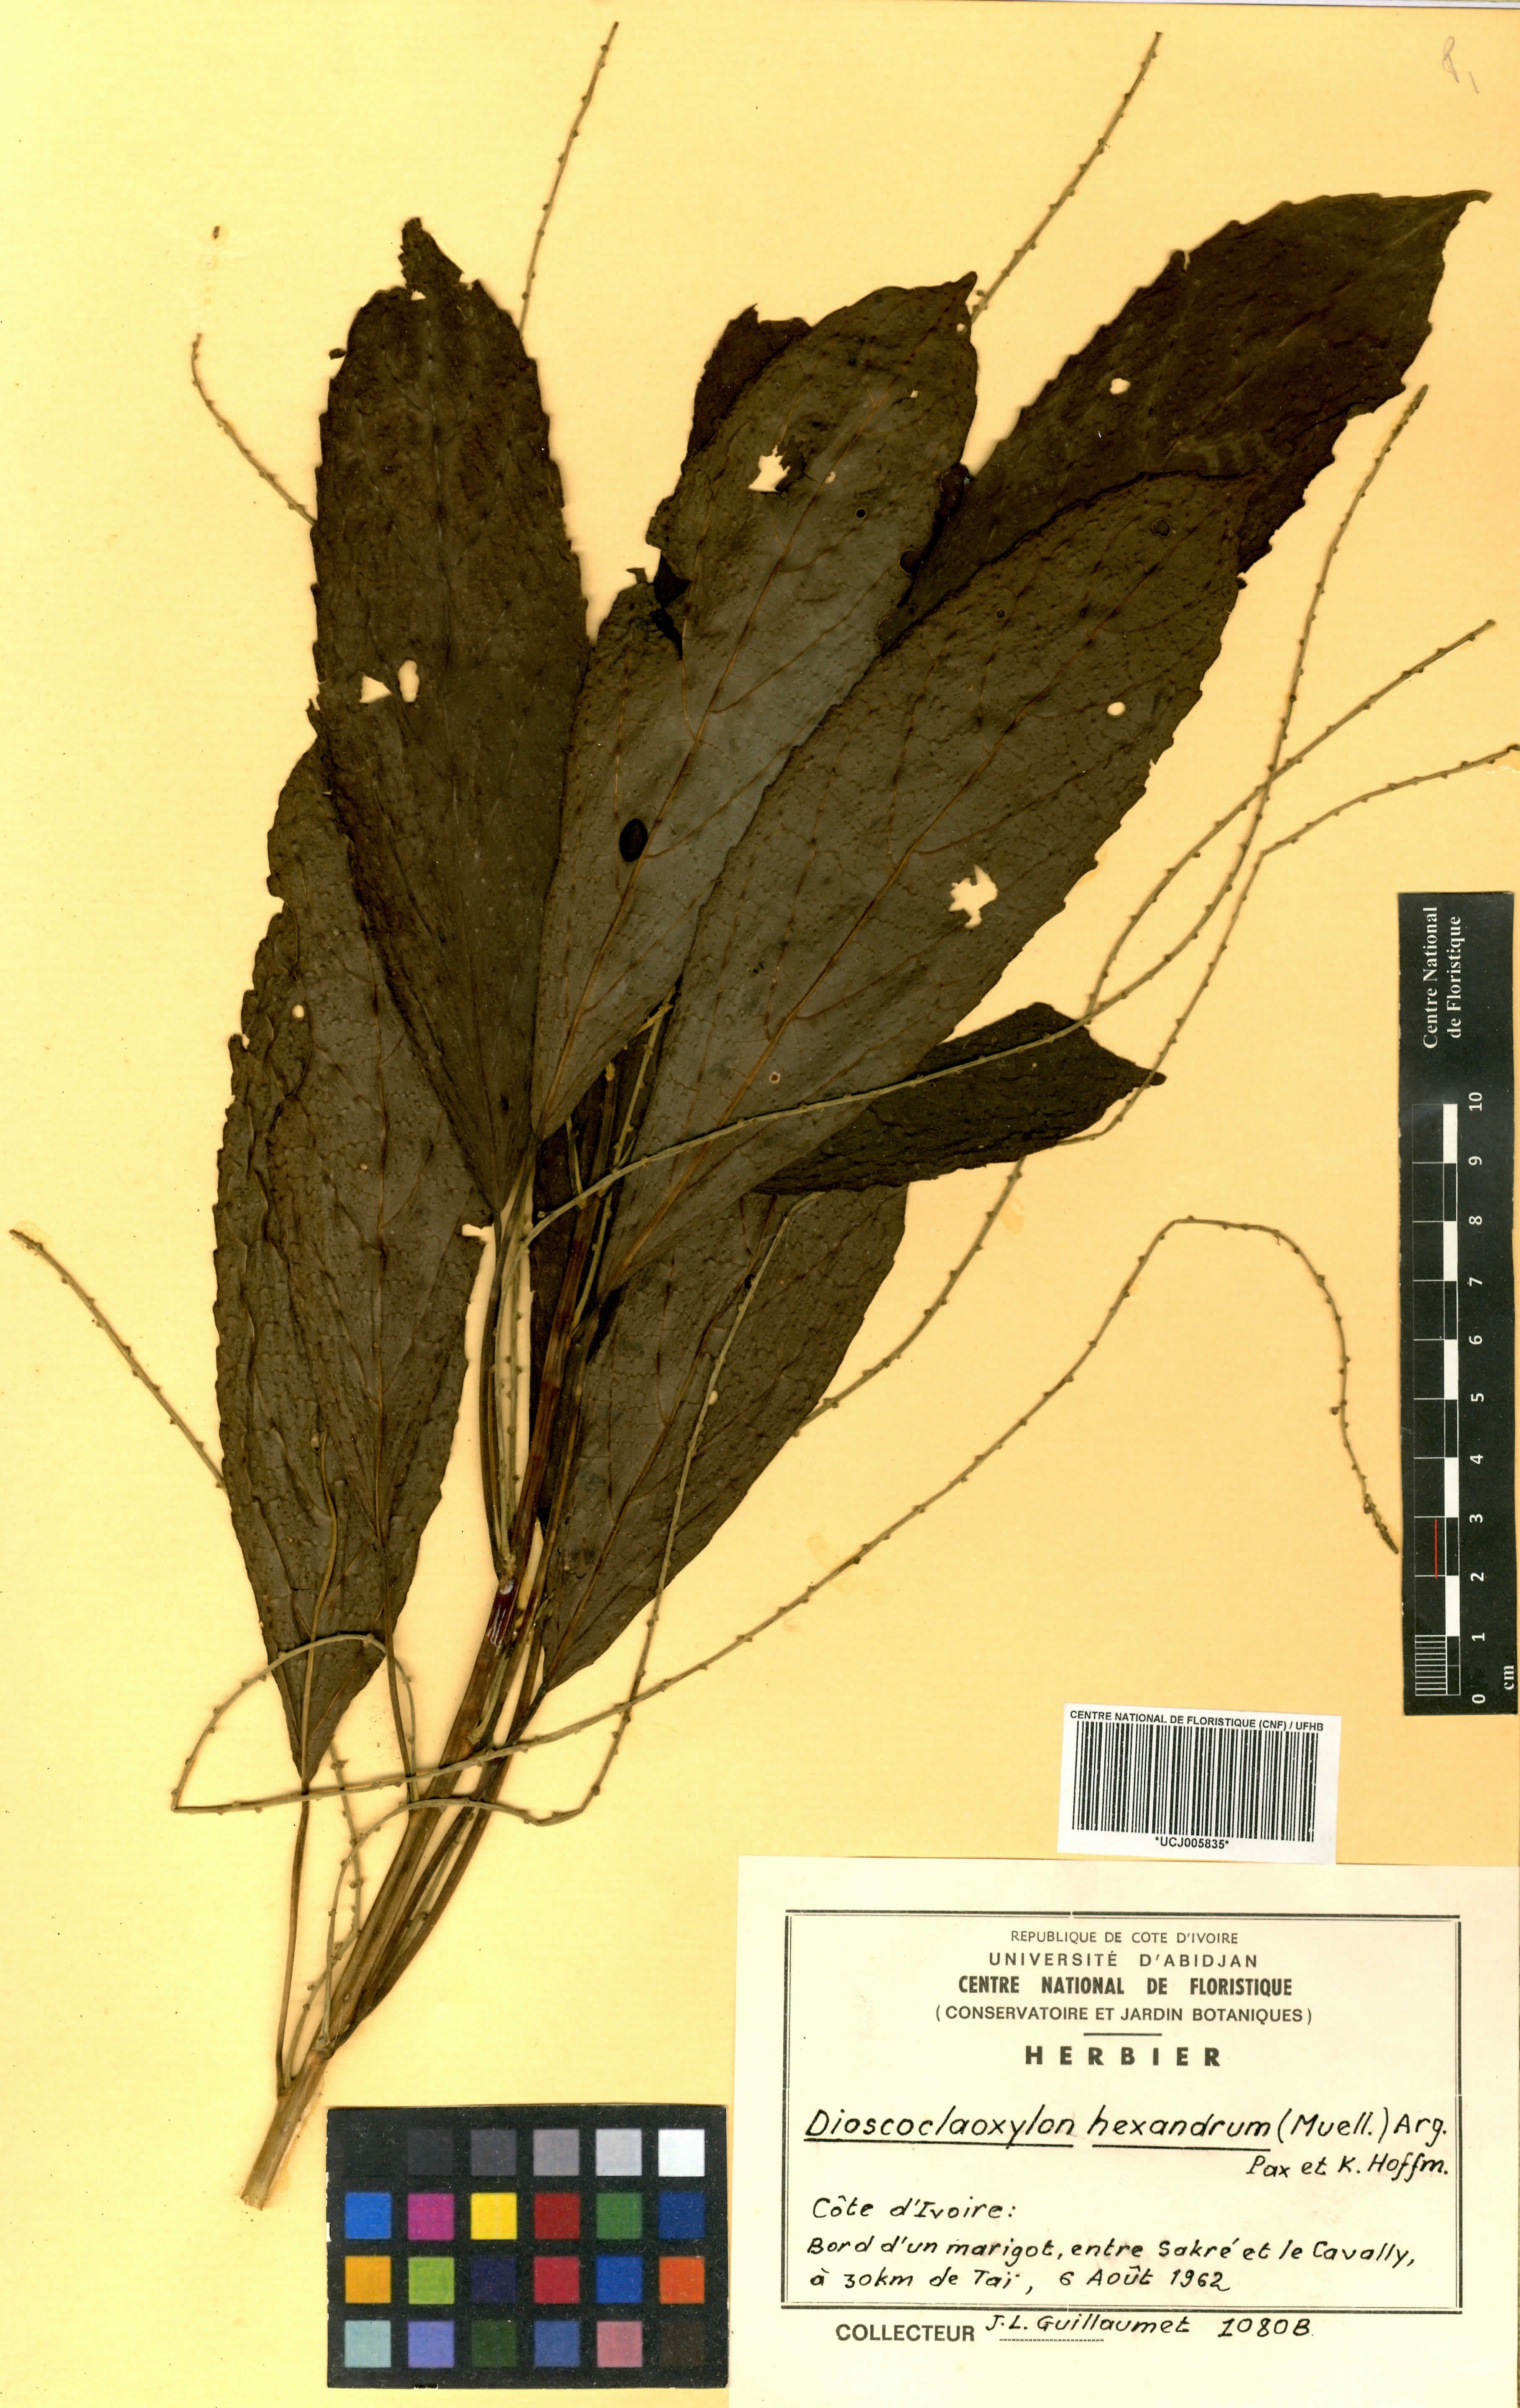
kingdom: Plantae
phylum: Tracheophyta
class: Magnoliopsida
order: Malpighiales
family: Euphorbiaceae
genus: Discoclaoxylon
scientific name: Discoclaoxylon hexandrum
